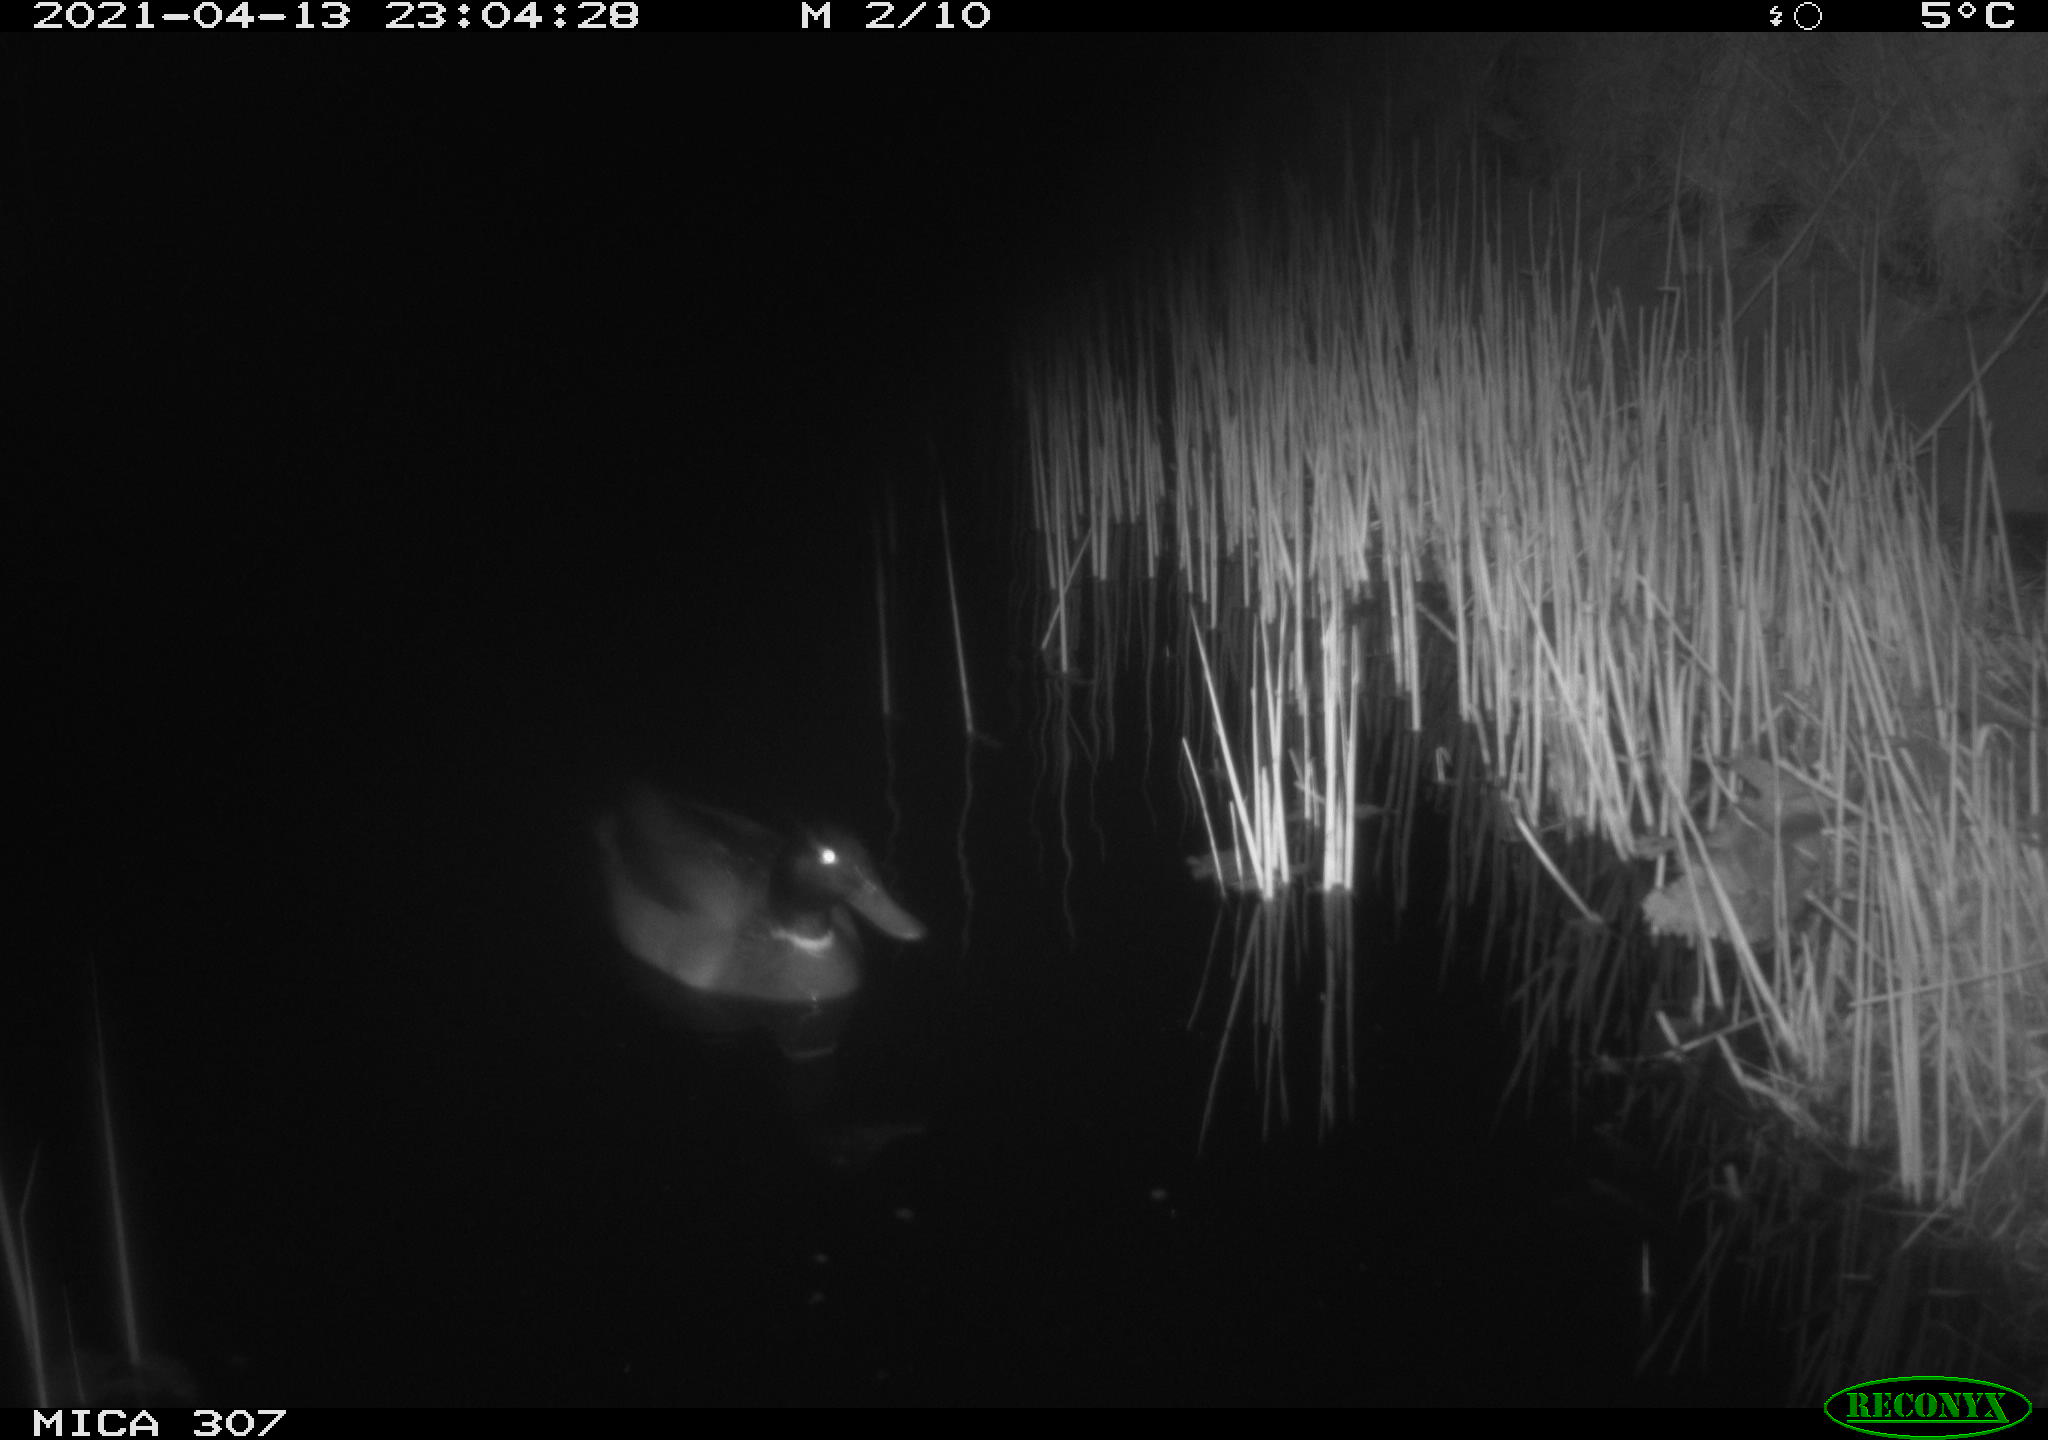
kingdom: Animalia
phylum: Chordata
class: Aves
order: Anseriformes
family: Anatidae
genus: Anas
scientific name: Anas platyrhynchos
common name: Mallard
